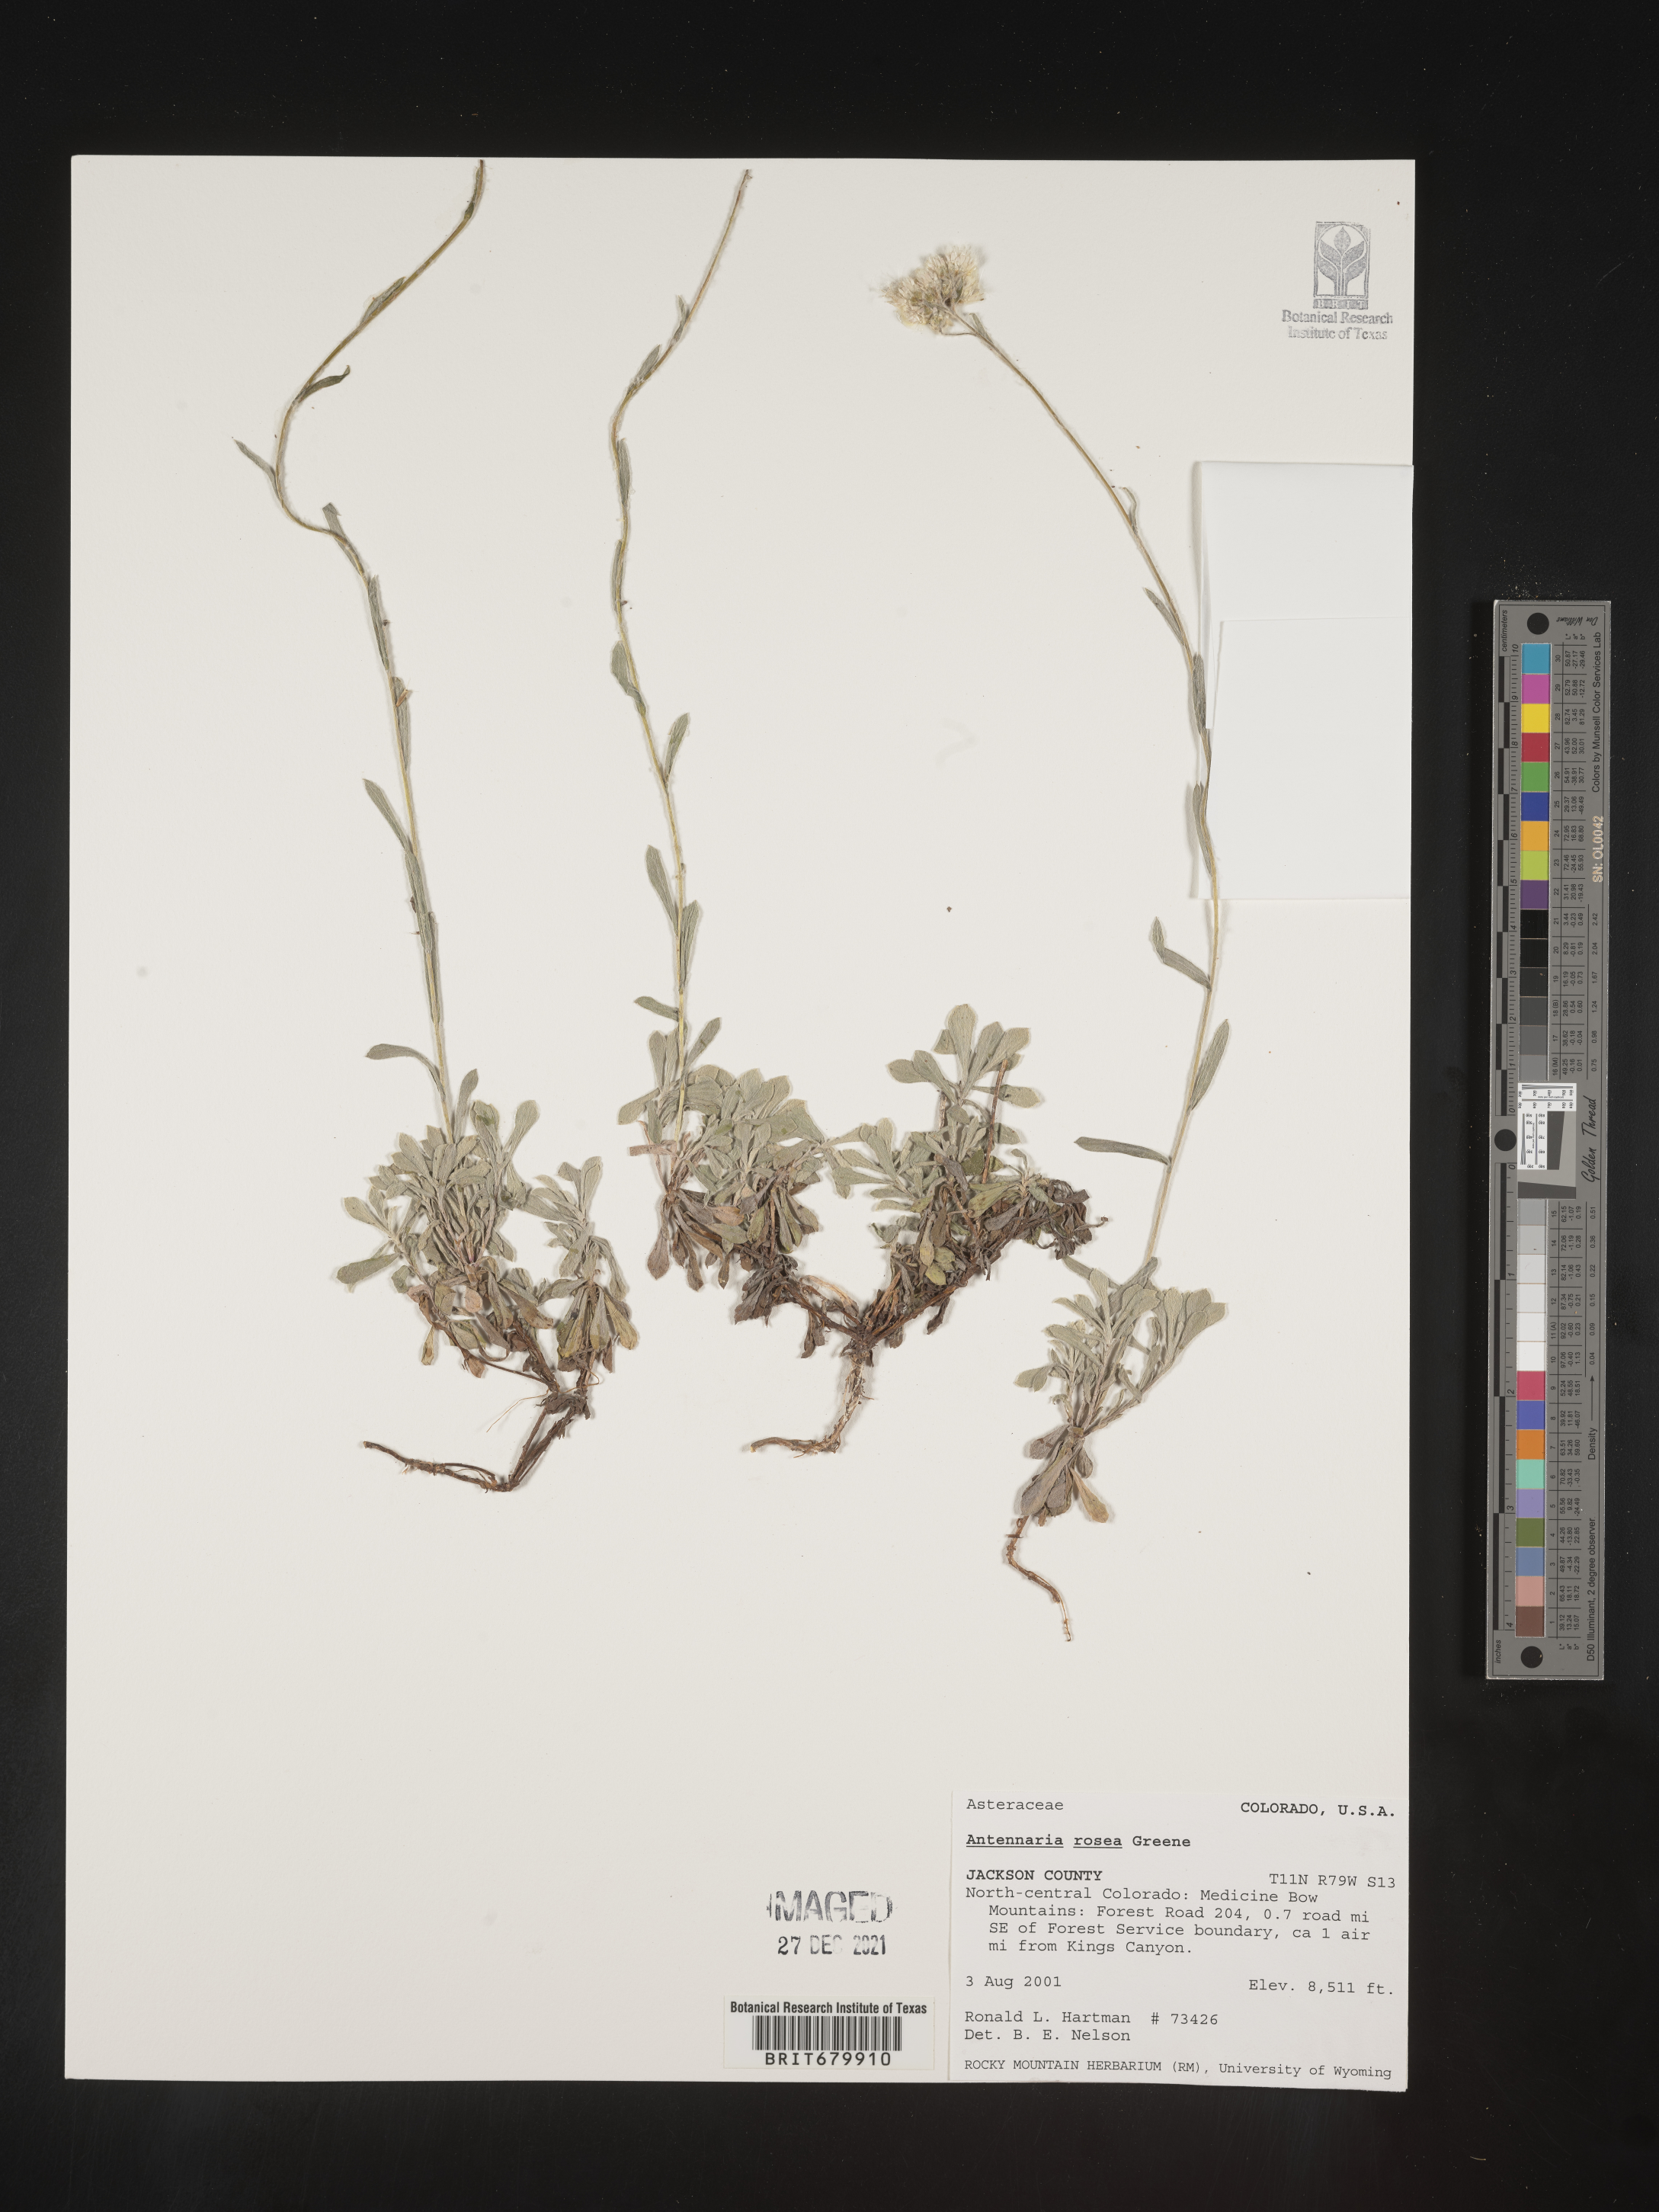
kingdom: Plantae
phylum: Tracheophyta
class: Magnoliopsida
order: Asterales
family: Asteraceae
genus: Antennaria
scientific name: Antennaria rosea
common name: Rosy pussytoes
